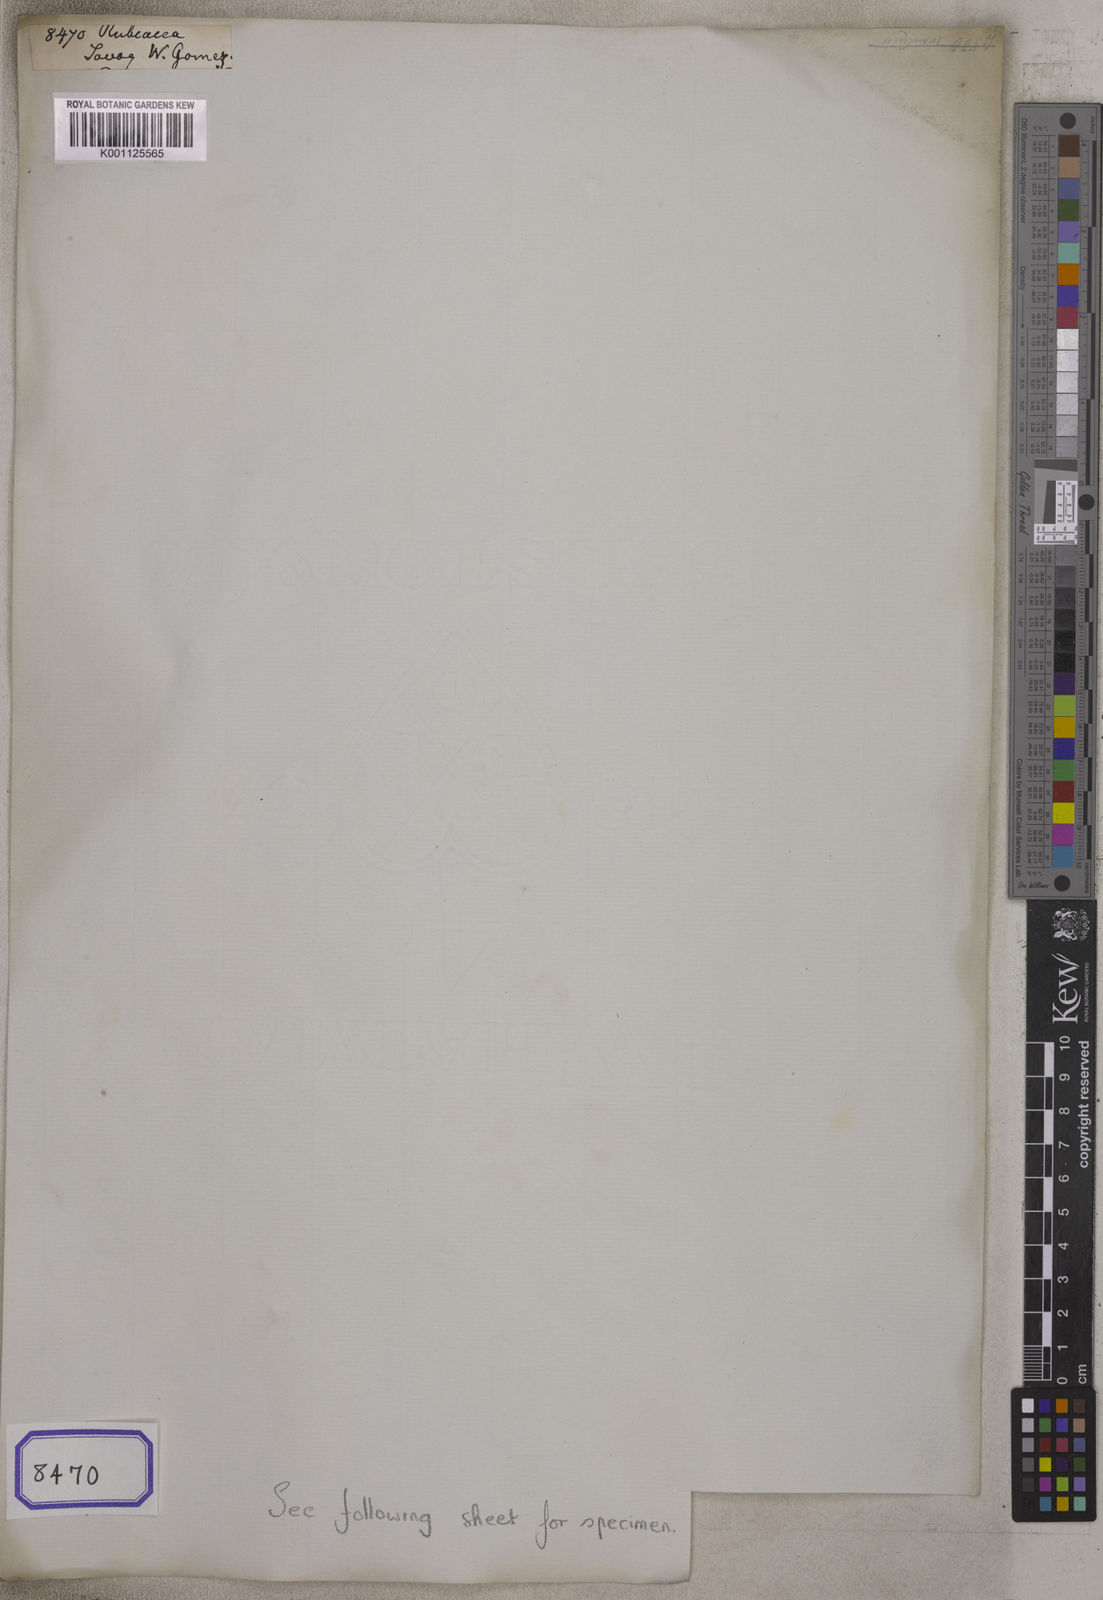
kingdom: Plantae
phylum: Tracheophyta
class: Magnoliopsida
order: Gentianales
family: Rubiaceae
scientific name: Rubiaceae
